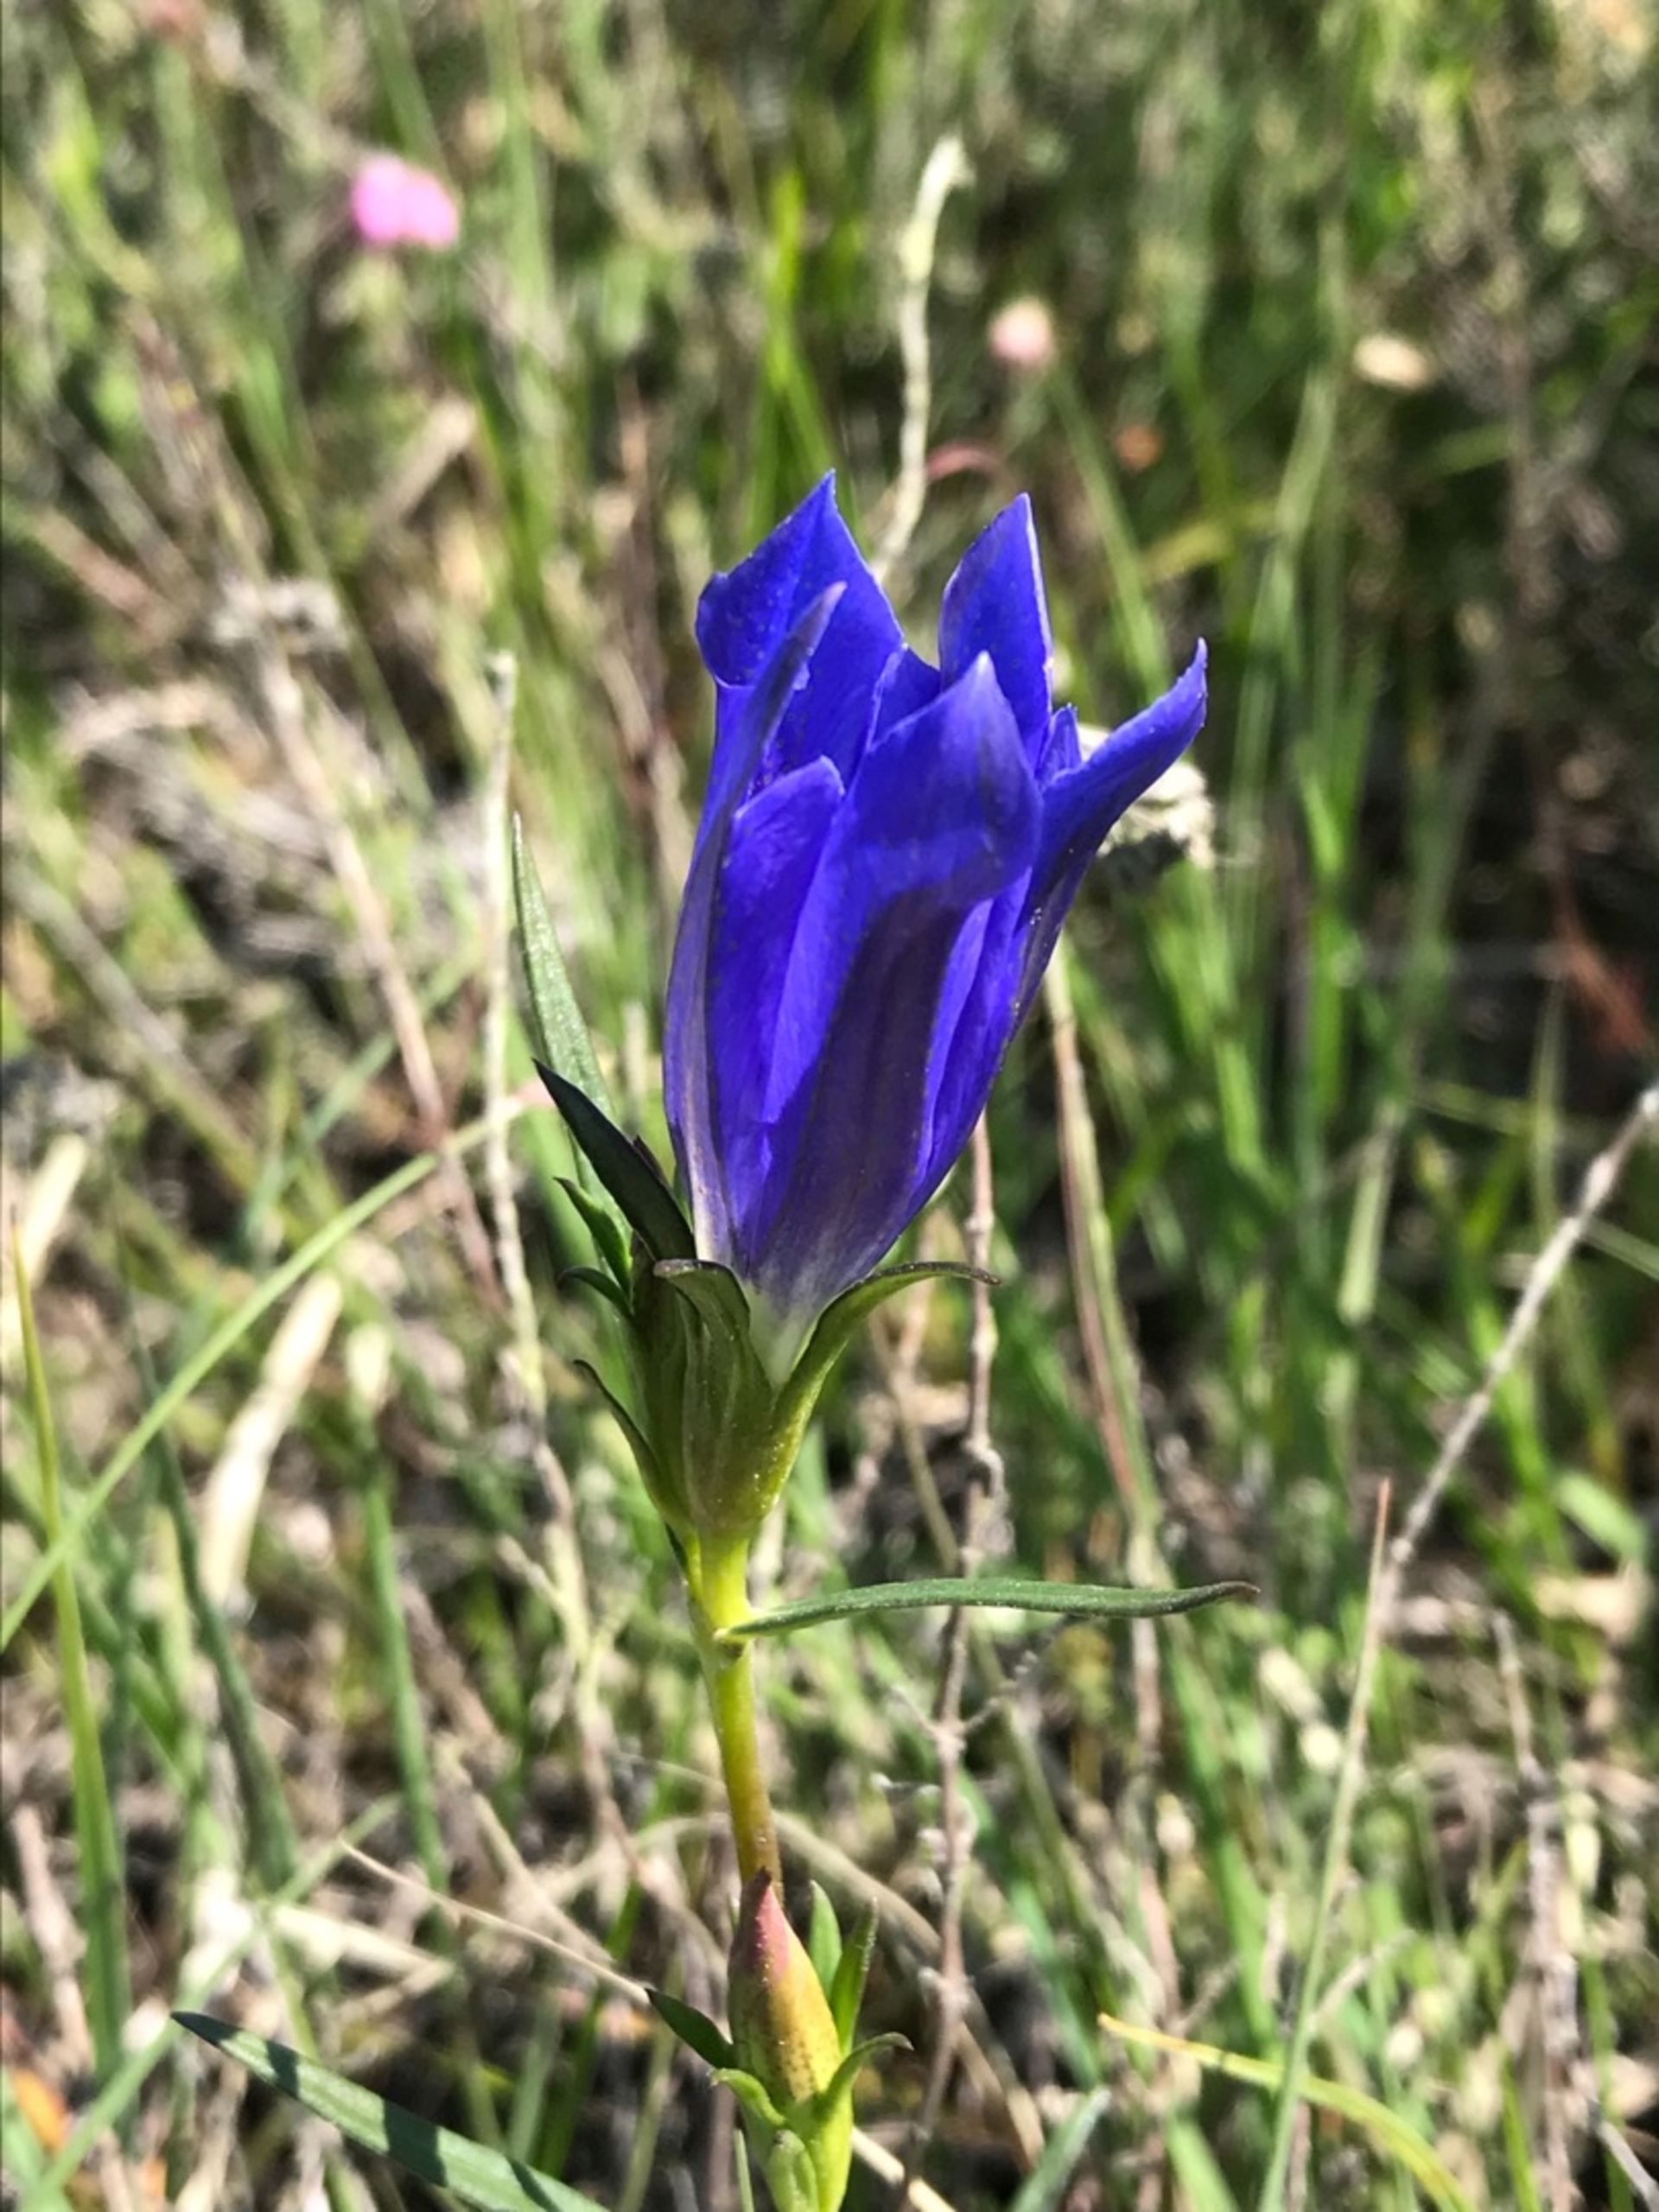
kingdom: Plantae
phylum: Tracheophyta
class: Magnoliopsida
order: Gentianales
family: Gentianaceae
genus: Gentiana
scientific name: Gentiana pneumonanthe
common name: Klokke-ensian
